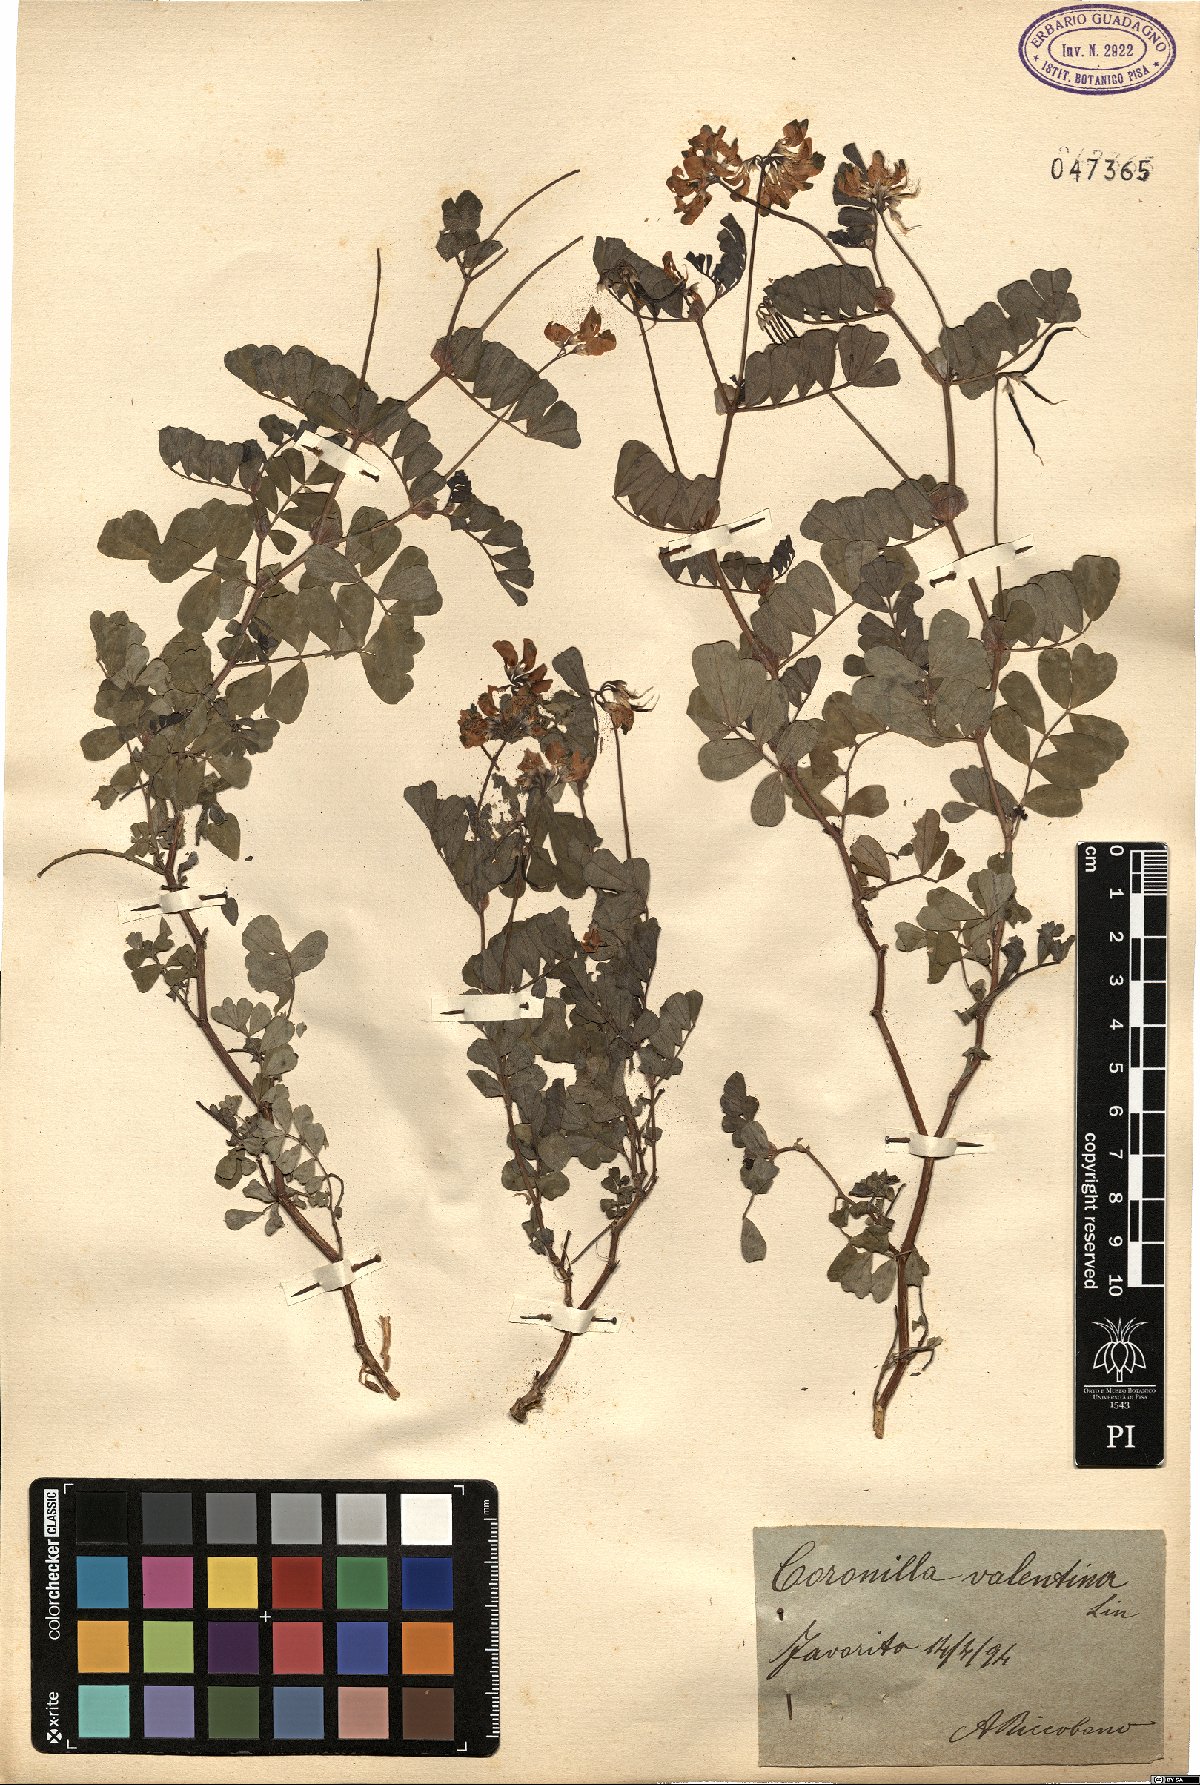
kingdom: Plantae
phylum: Tracheophyta
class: Magnoliopsida
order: Fabales
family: Fabaceae
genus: Coronilla
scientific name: Coronilla valentina
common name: Shrubby scorpion-vetch
